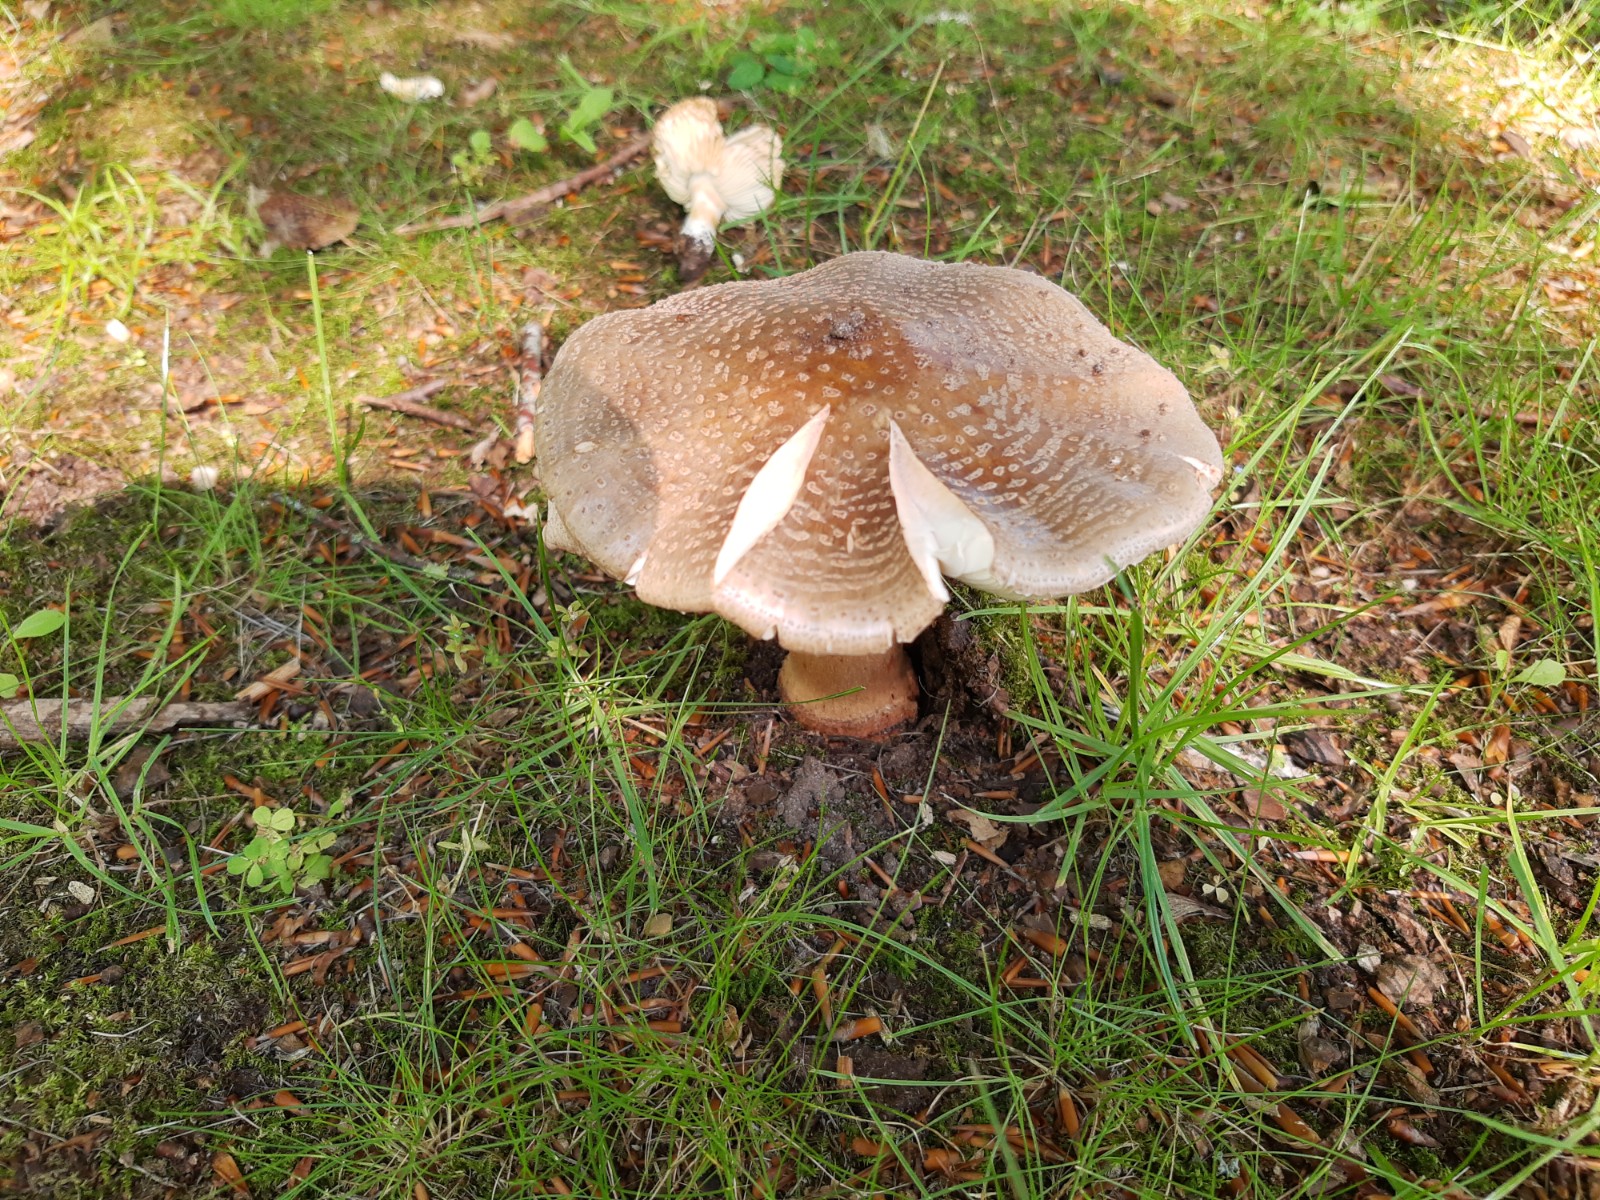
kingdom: Fungi
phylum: Basidiomycota
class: Agaricomycetes
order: Agaricales
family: Amanitaceae
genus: Amanita
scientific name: Amanita rubescens
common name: rødmende fluesvamp
